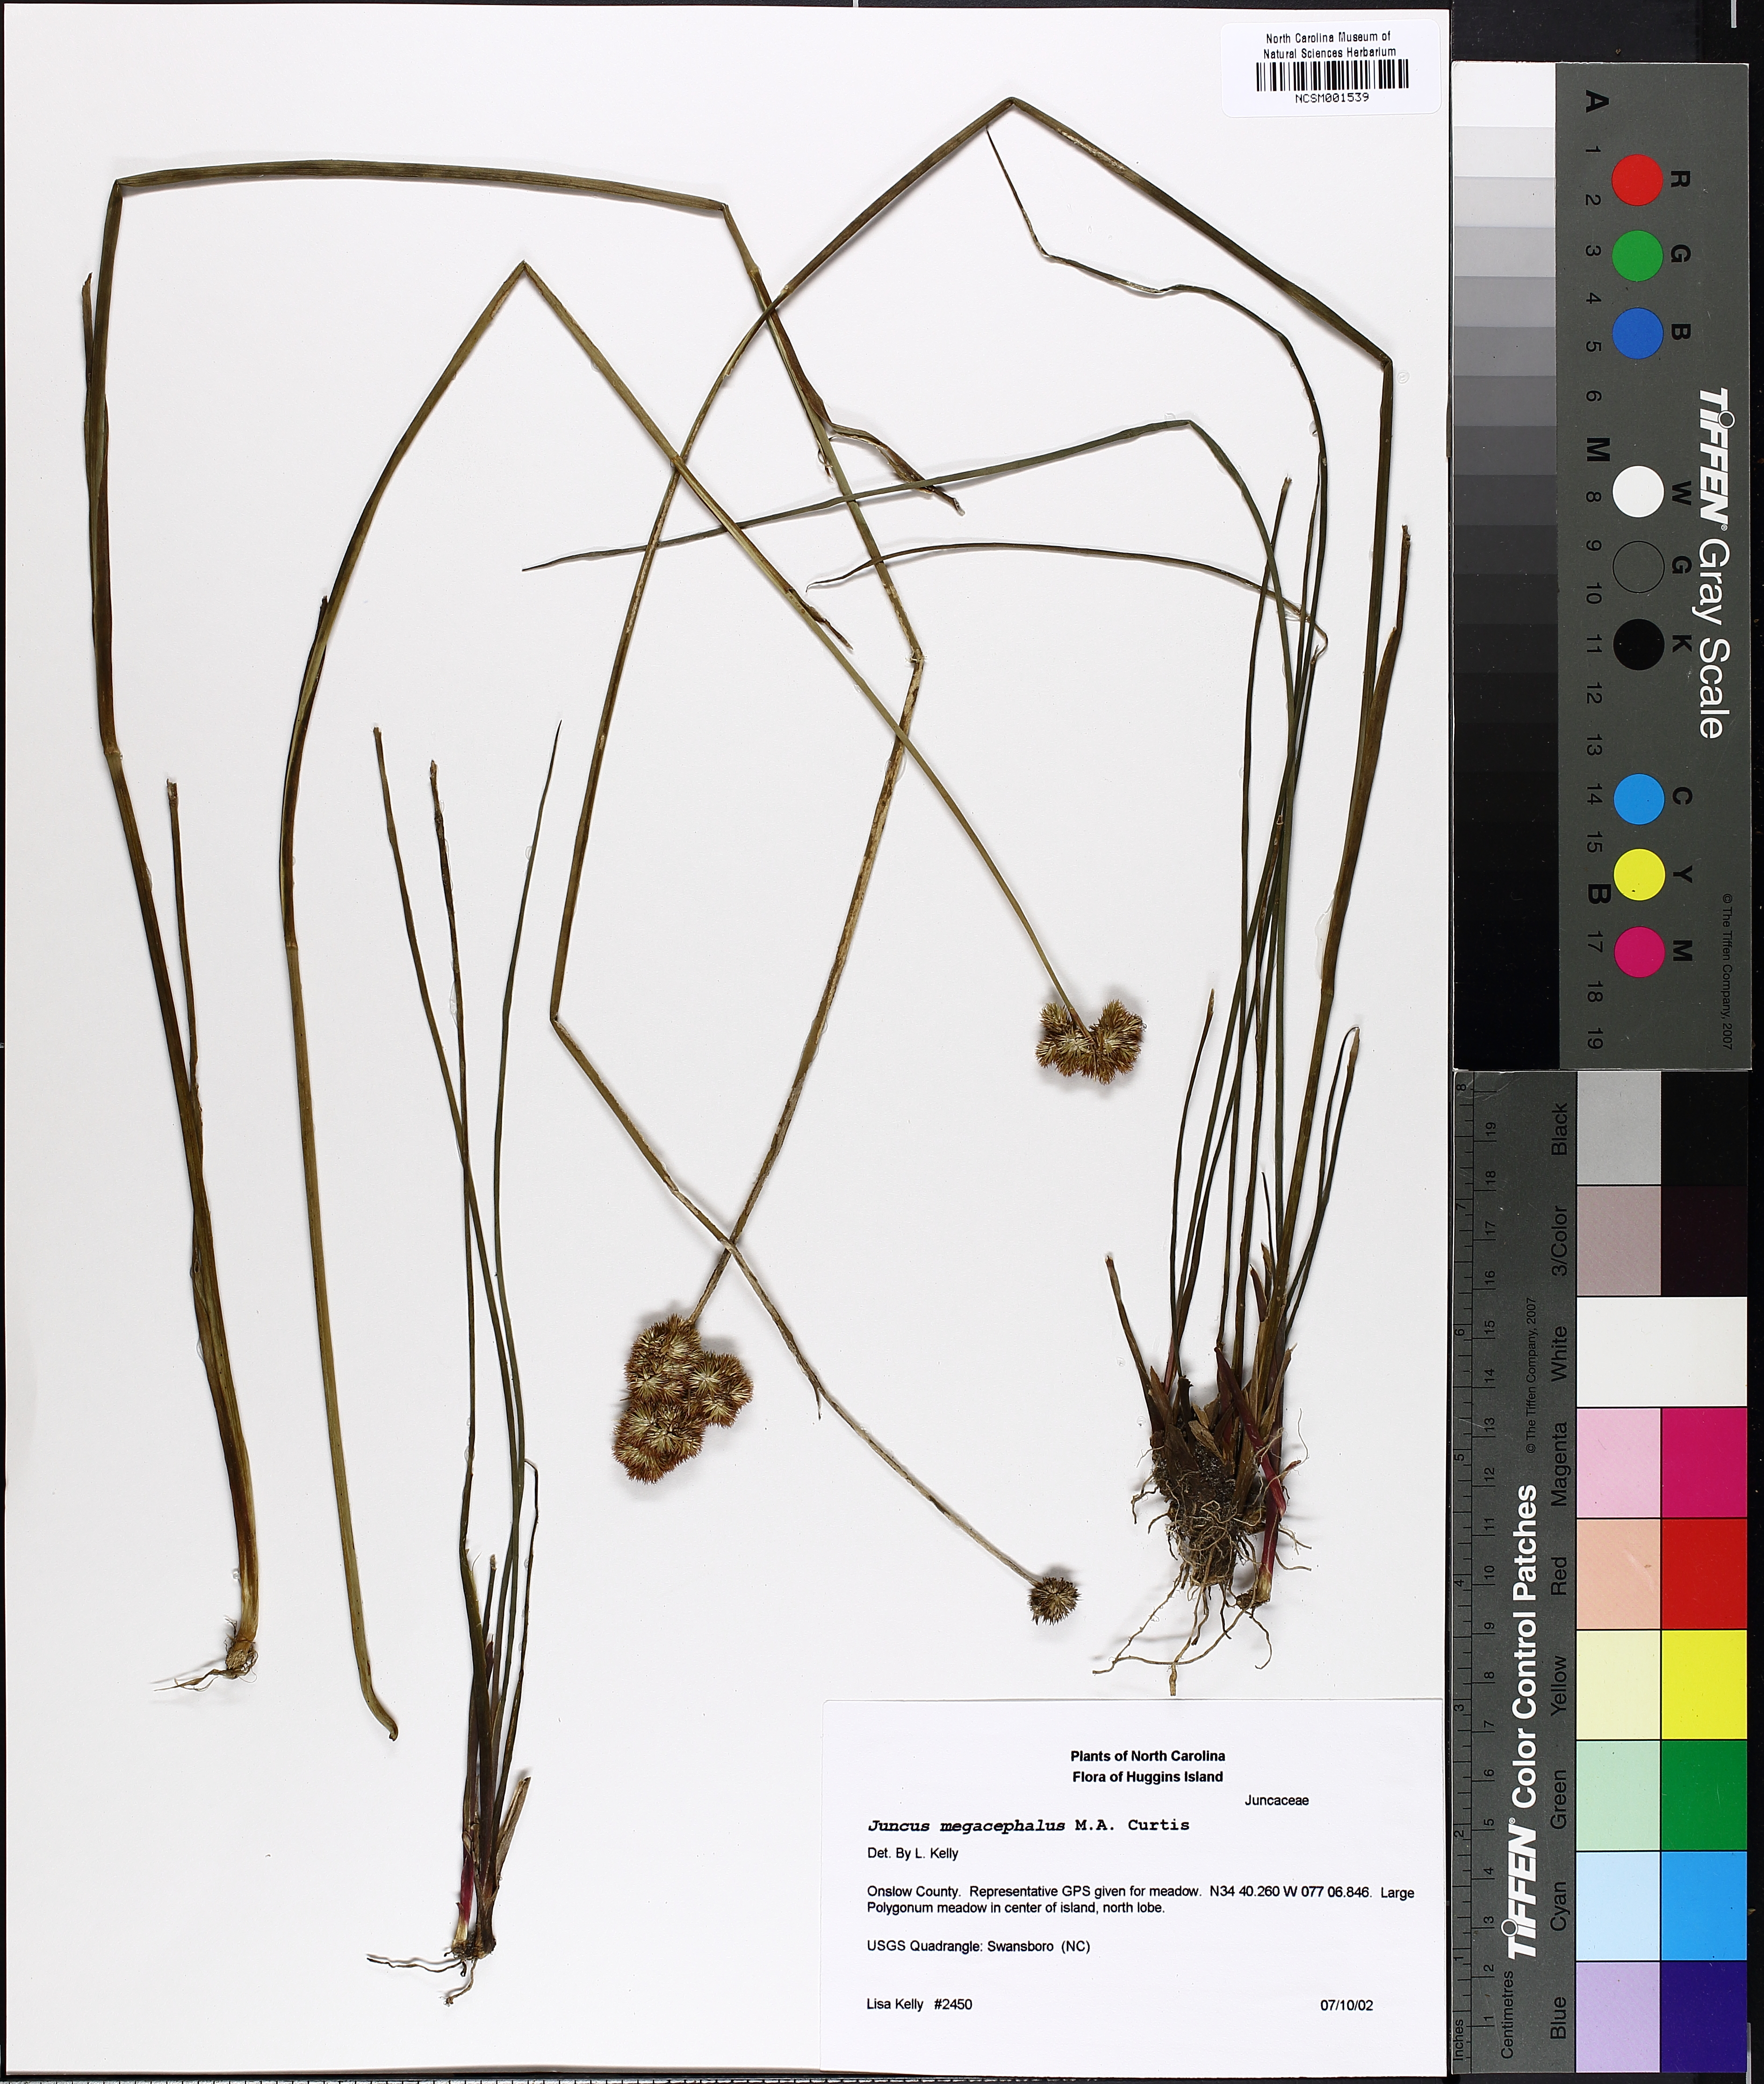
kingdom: Plantae
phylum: Tracheophyta
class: Liliopsida
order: Poales
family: Juncaceae
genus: Juncus
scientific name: Juncus megacephalus
